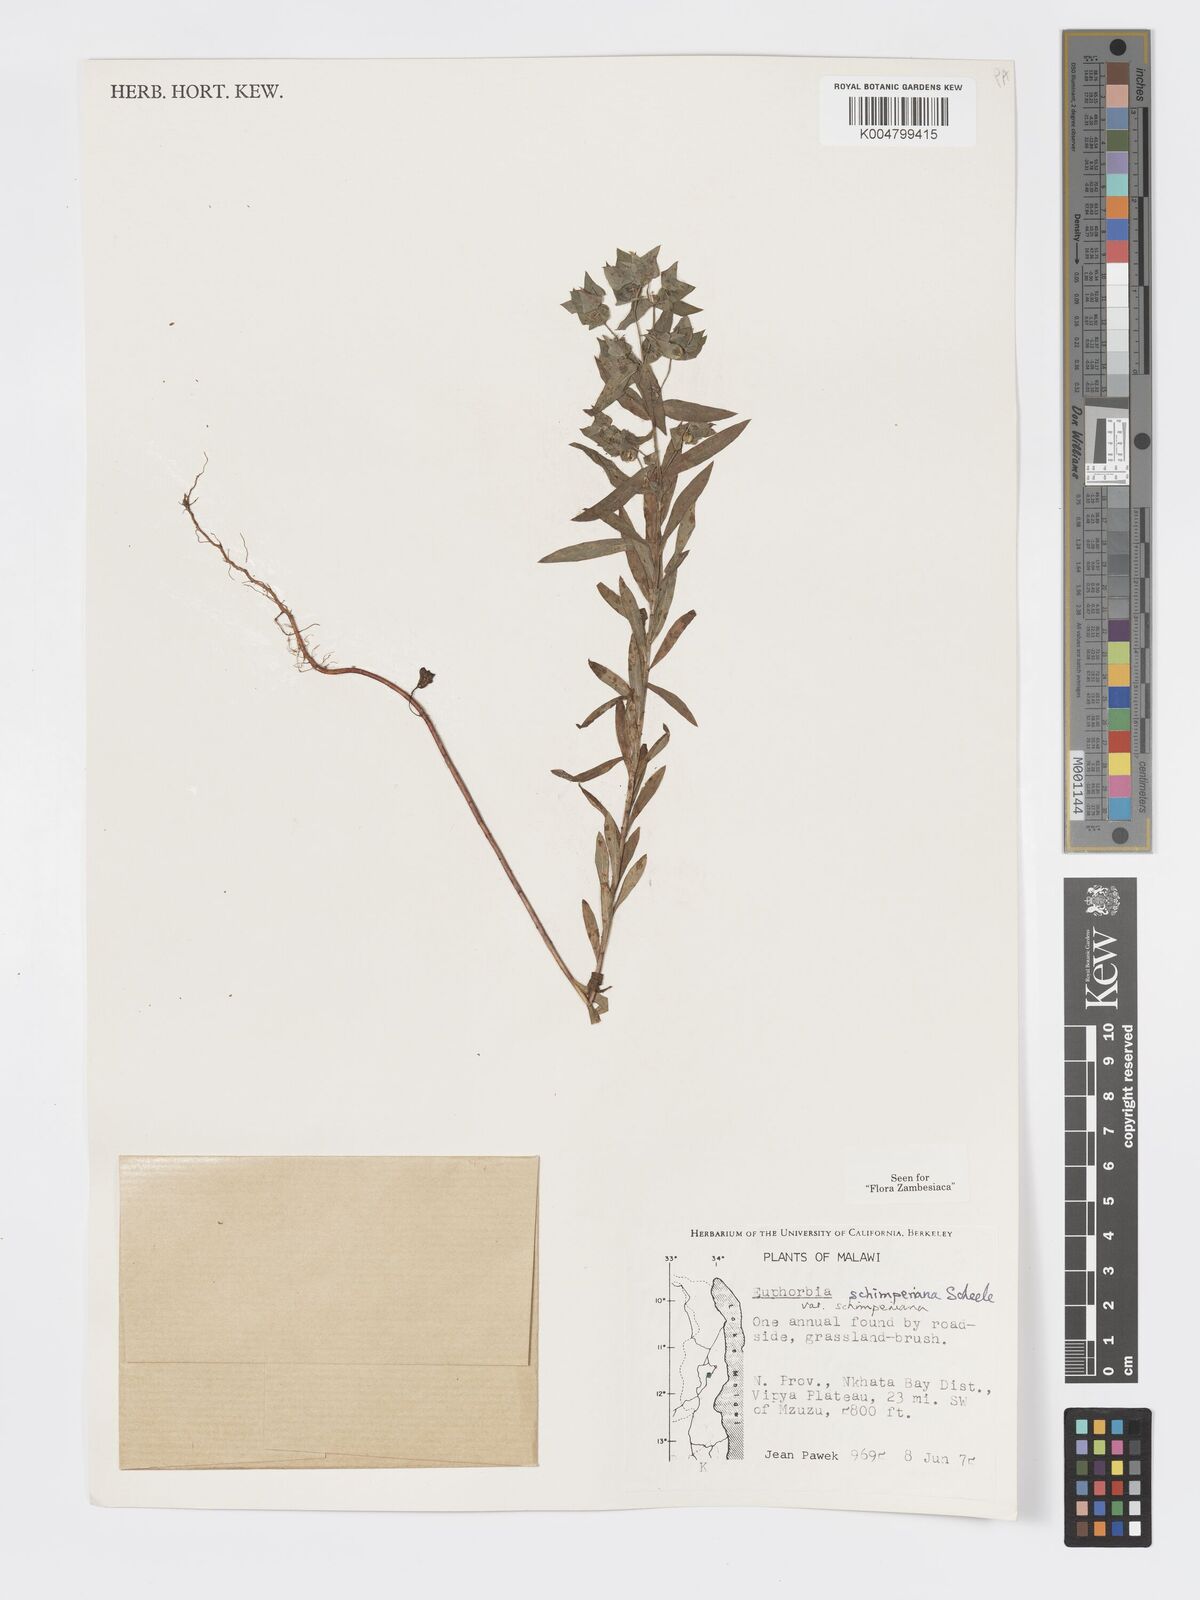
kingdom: Plantae
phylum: Tracheophyta
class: Magnoliopsida
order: Malpighiales
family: Euphorbiaceae
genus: Euphorbia
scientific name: Euphorbia schimperiana
